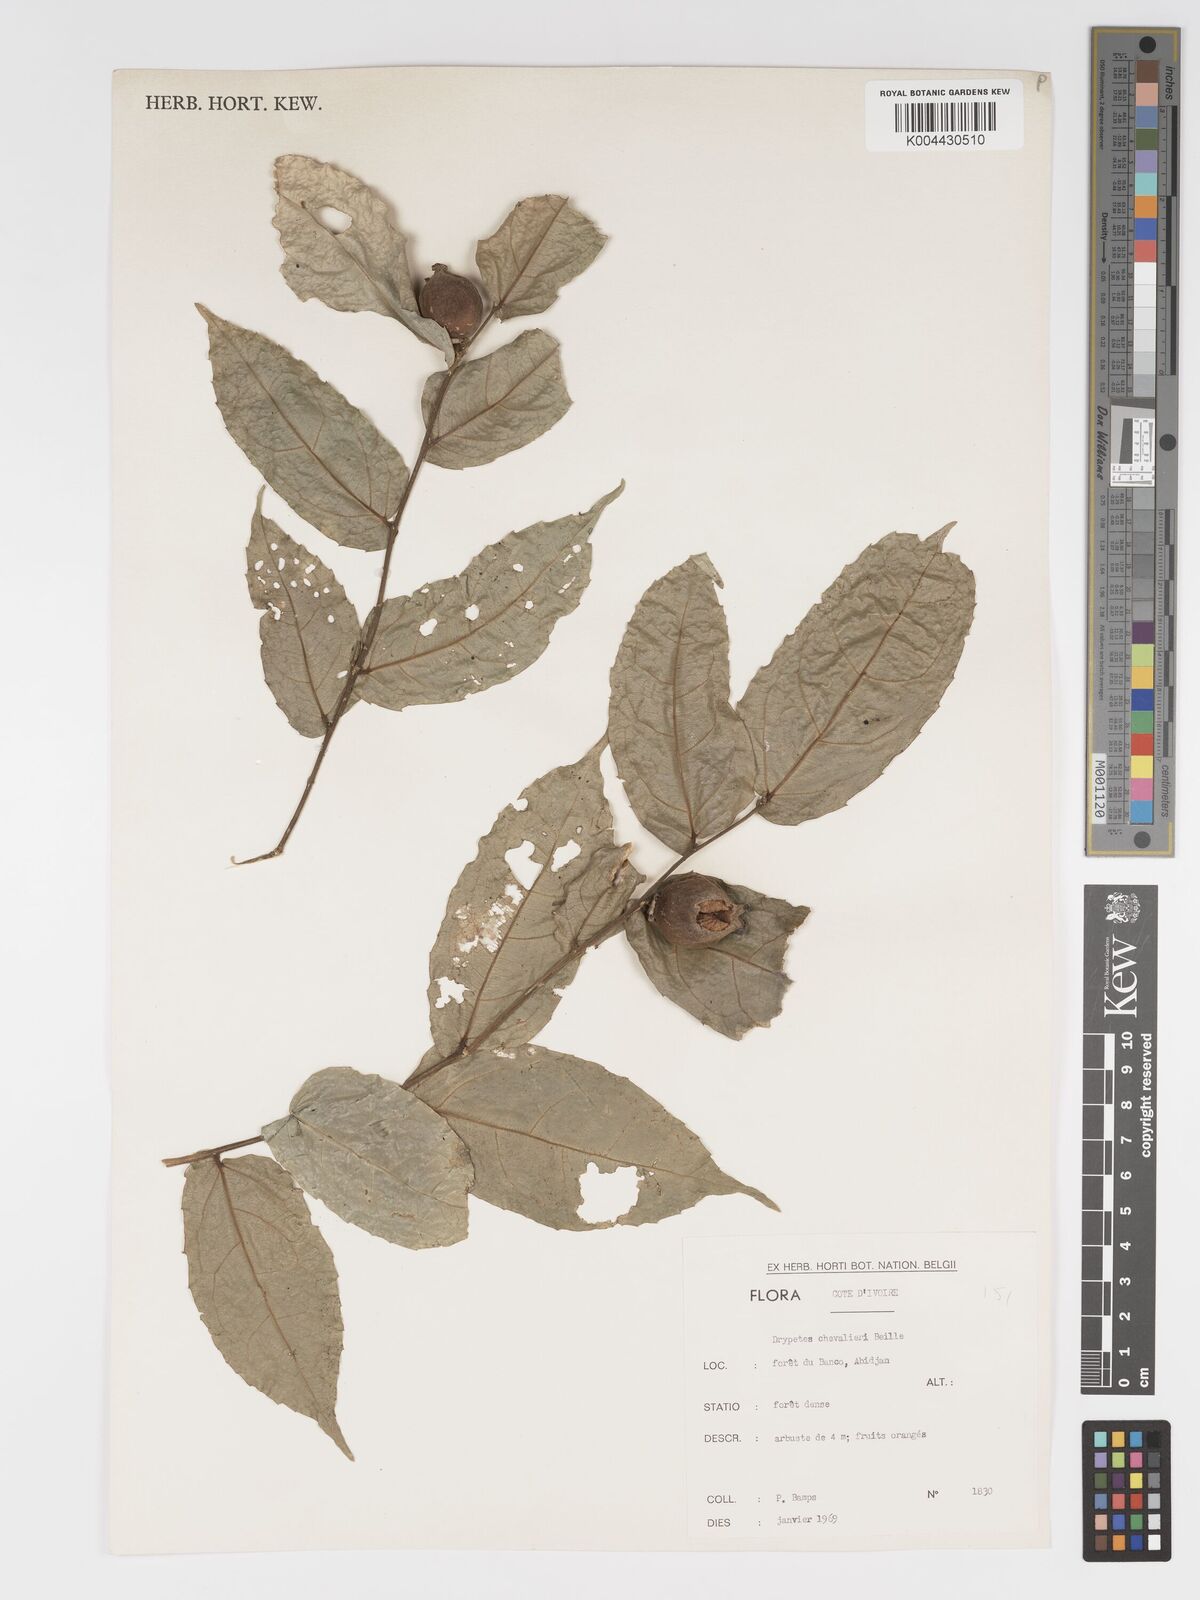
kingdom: Plantae
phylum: Tracheophyta
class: Magnoliopsida
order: Malpighiales
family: Putranjivaceae
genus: Drypetes
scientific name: Drypetes chevalieri
